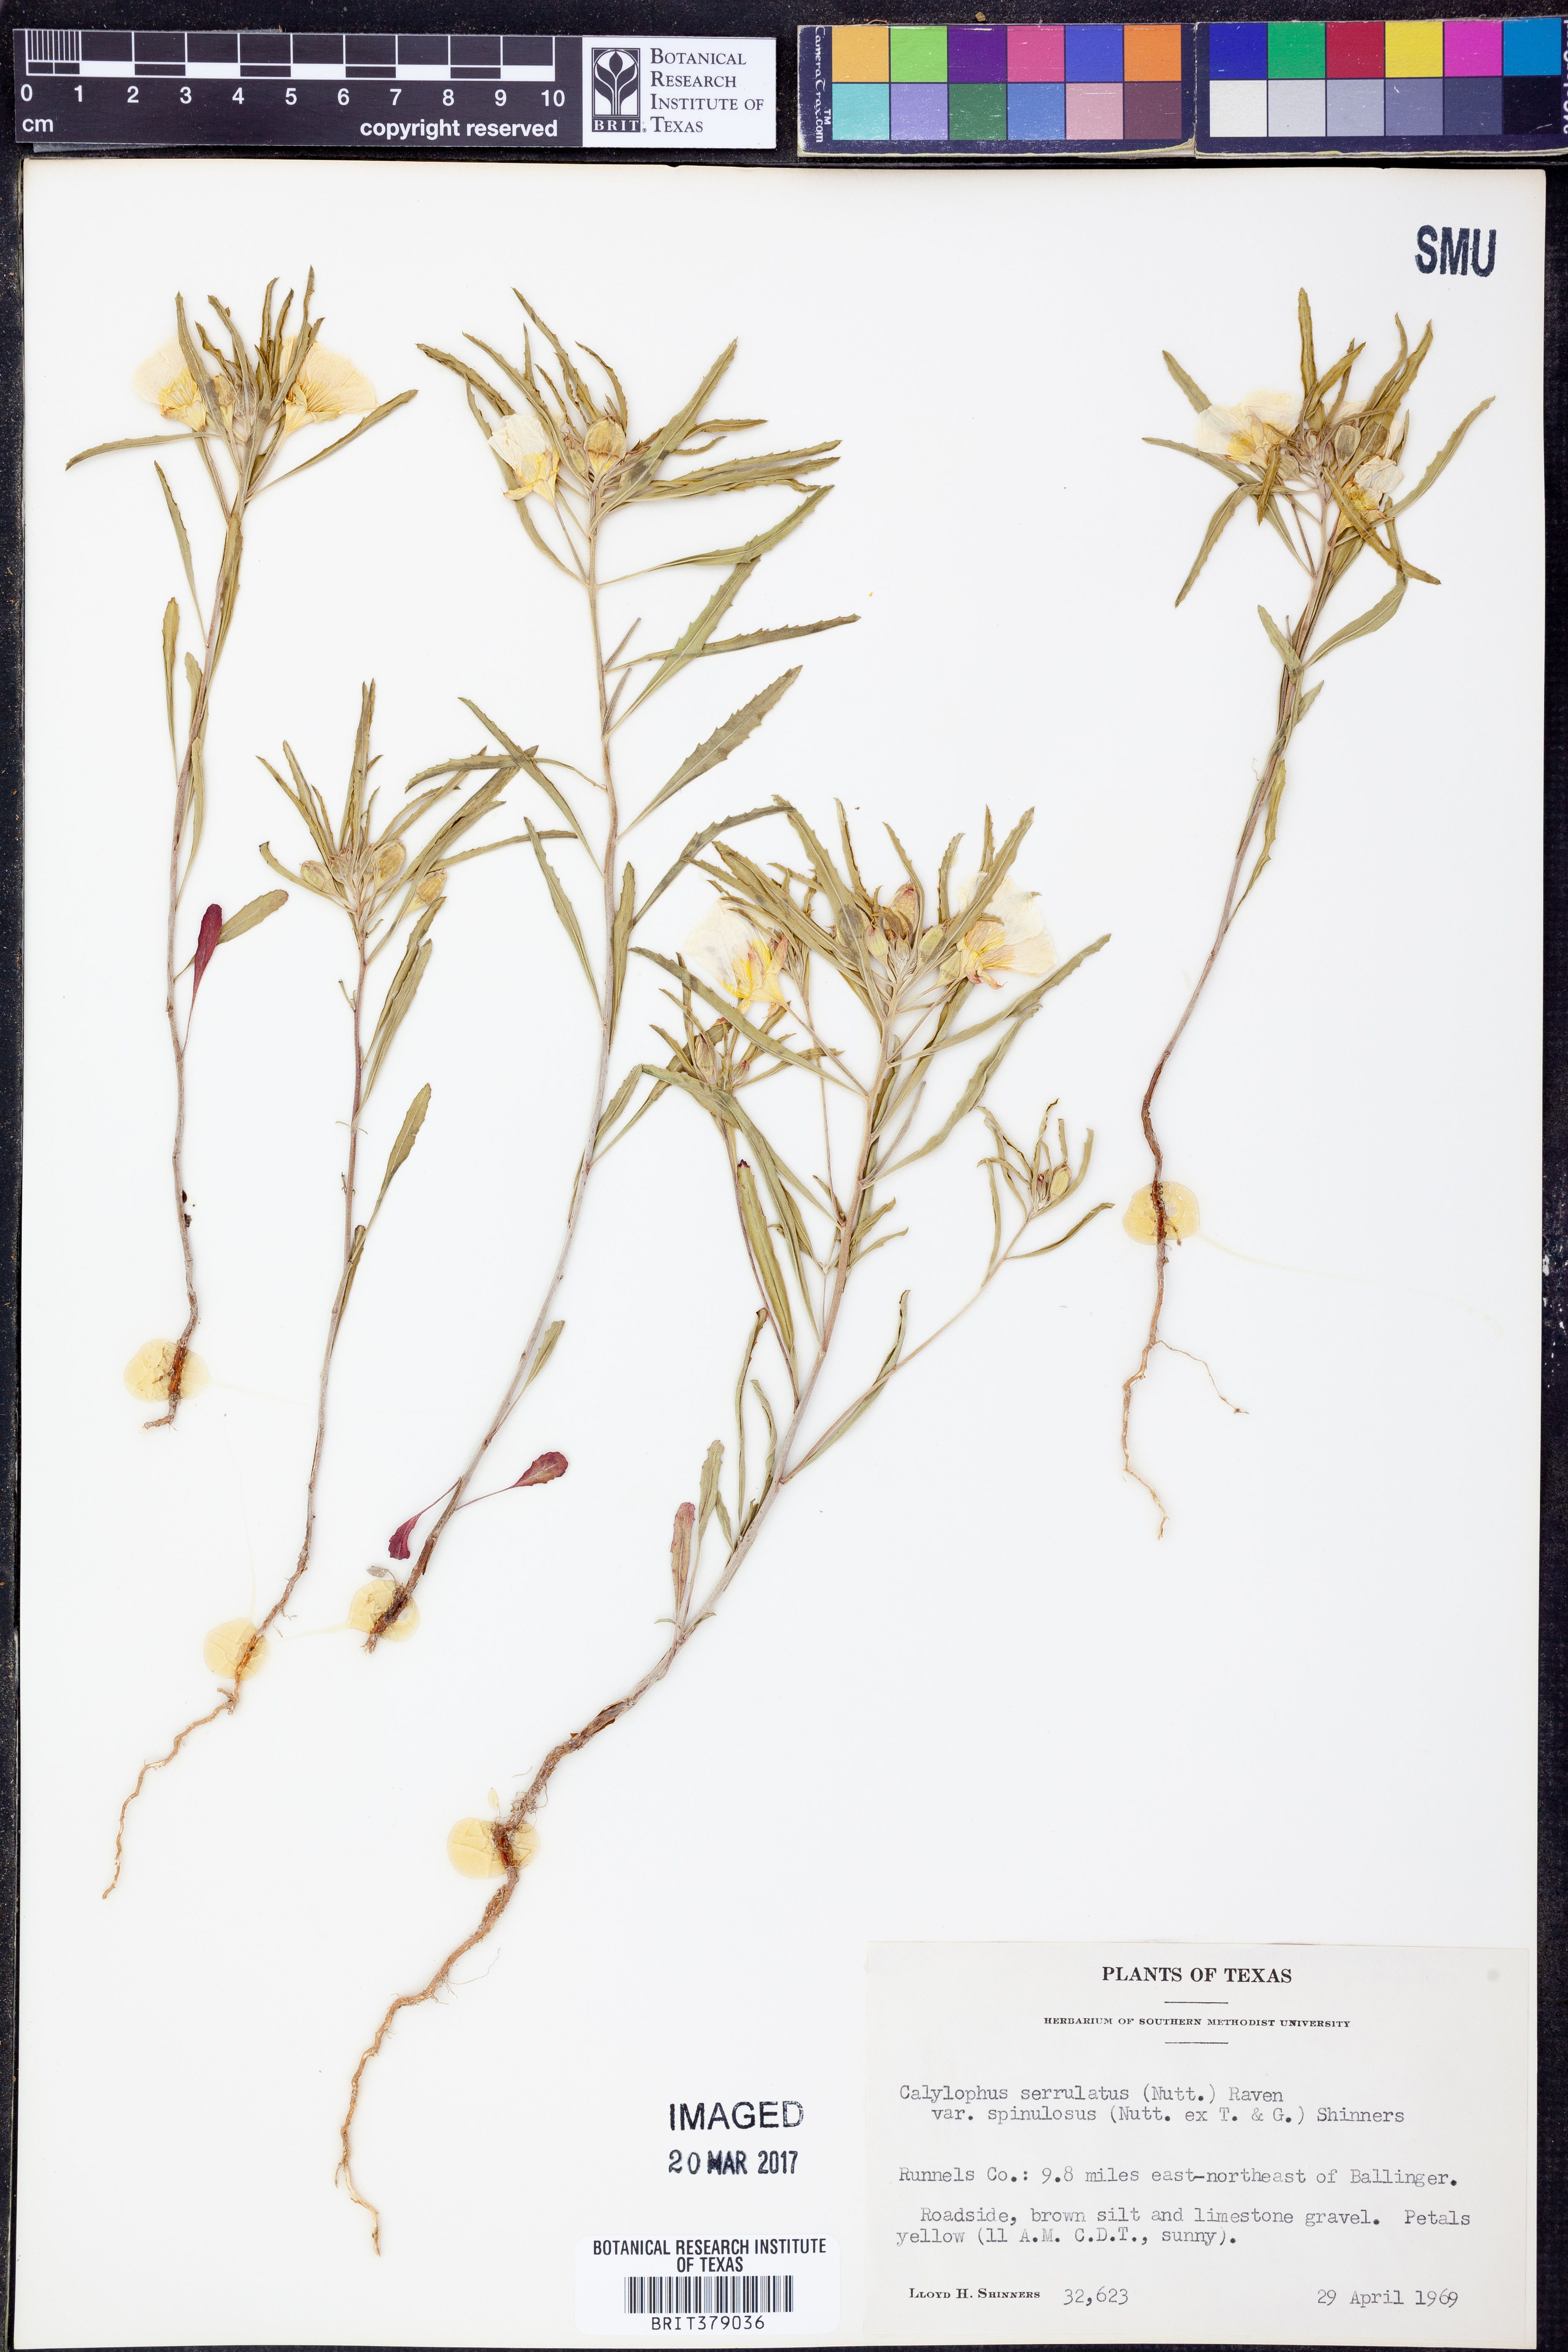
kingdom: Plantae
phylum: Tracheophyta
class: Magnoliopsida
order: Myrtales
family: Onagraceae
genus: Oenothera
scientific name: Oenothera serrulata
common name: Half-shrub calylophus
